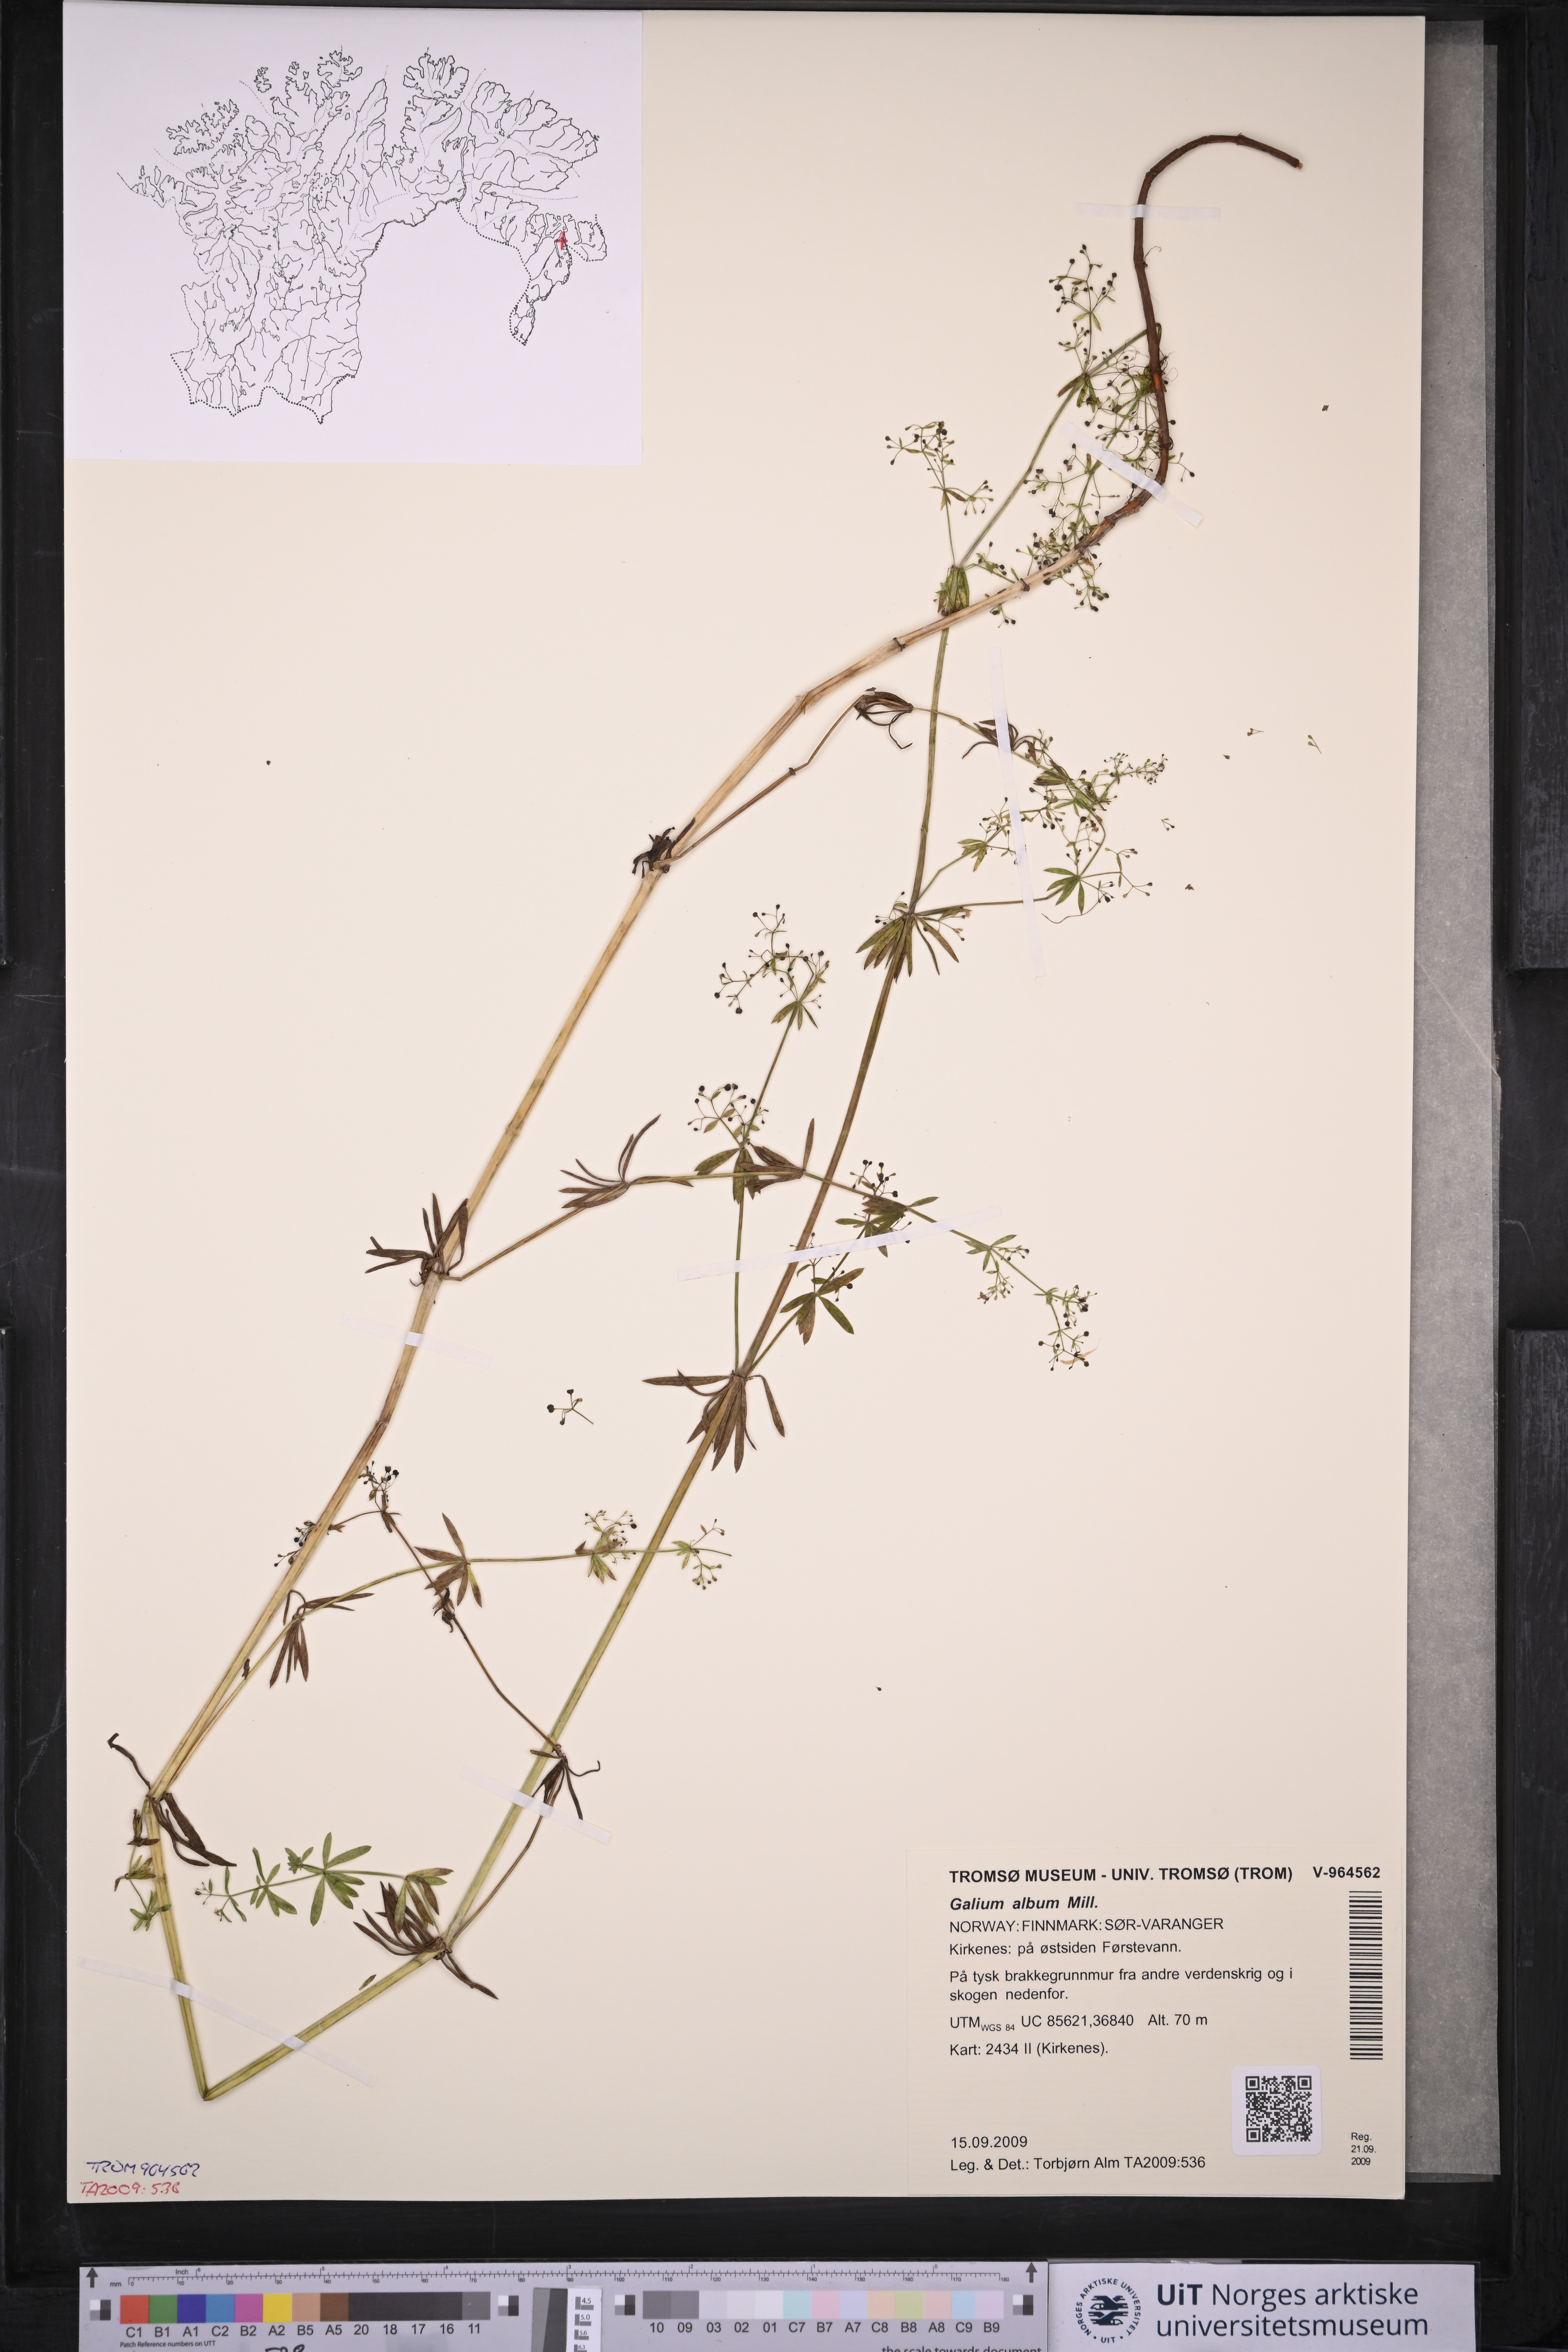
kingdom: Plantae
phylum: Tracheophyta
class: Magnoliopsida
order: Gentianales
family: Rubiaceae
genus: Galium
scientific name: Galium album
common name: White bedstraw
